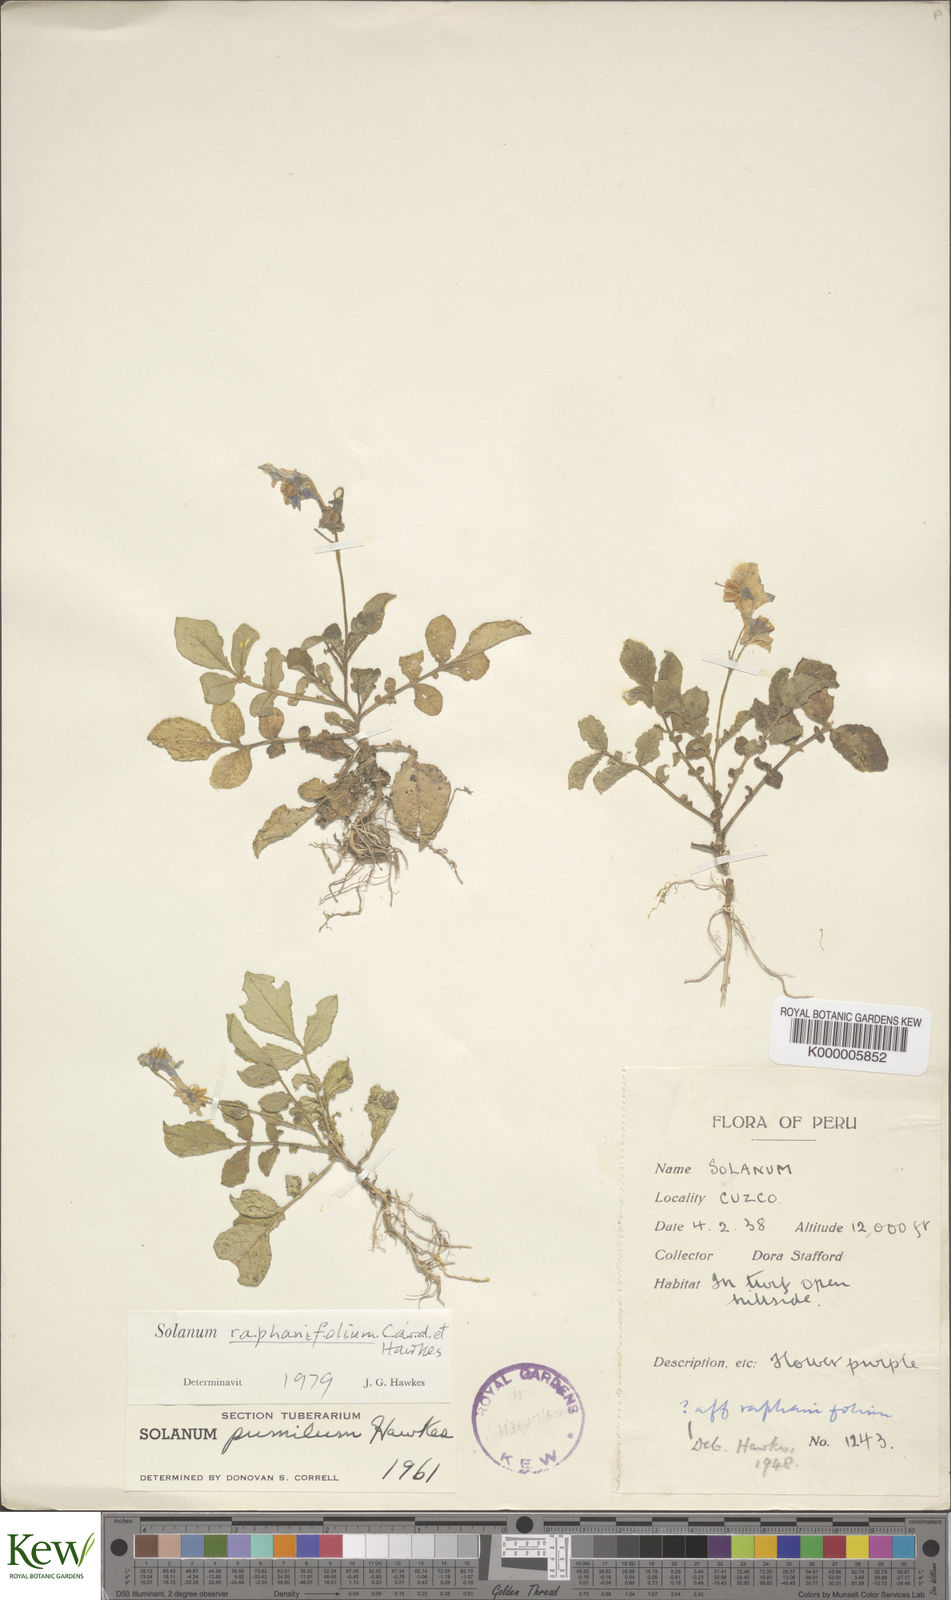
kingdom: Plantae
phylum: Tracheophyta
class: Magnoliopsida
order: Solanales
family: Solanaceae
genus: Solanum
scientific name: Solanum raphanifolium
